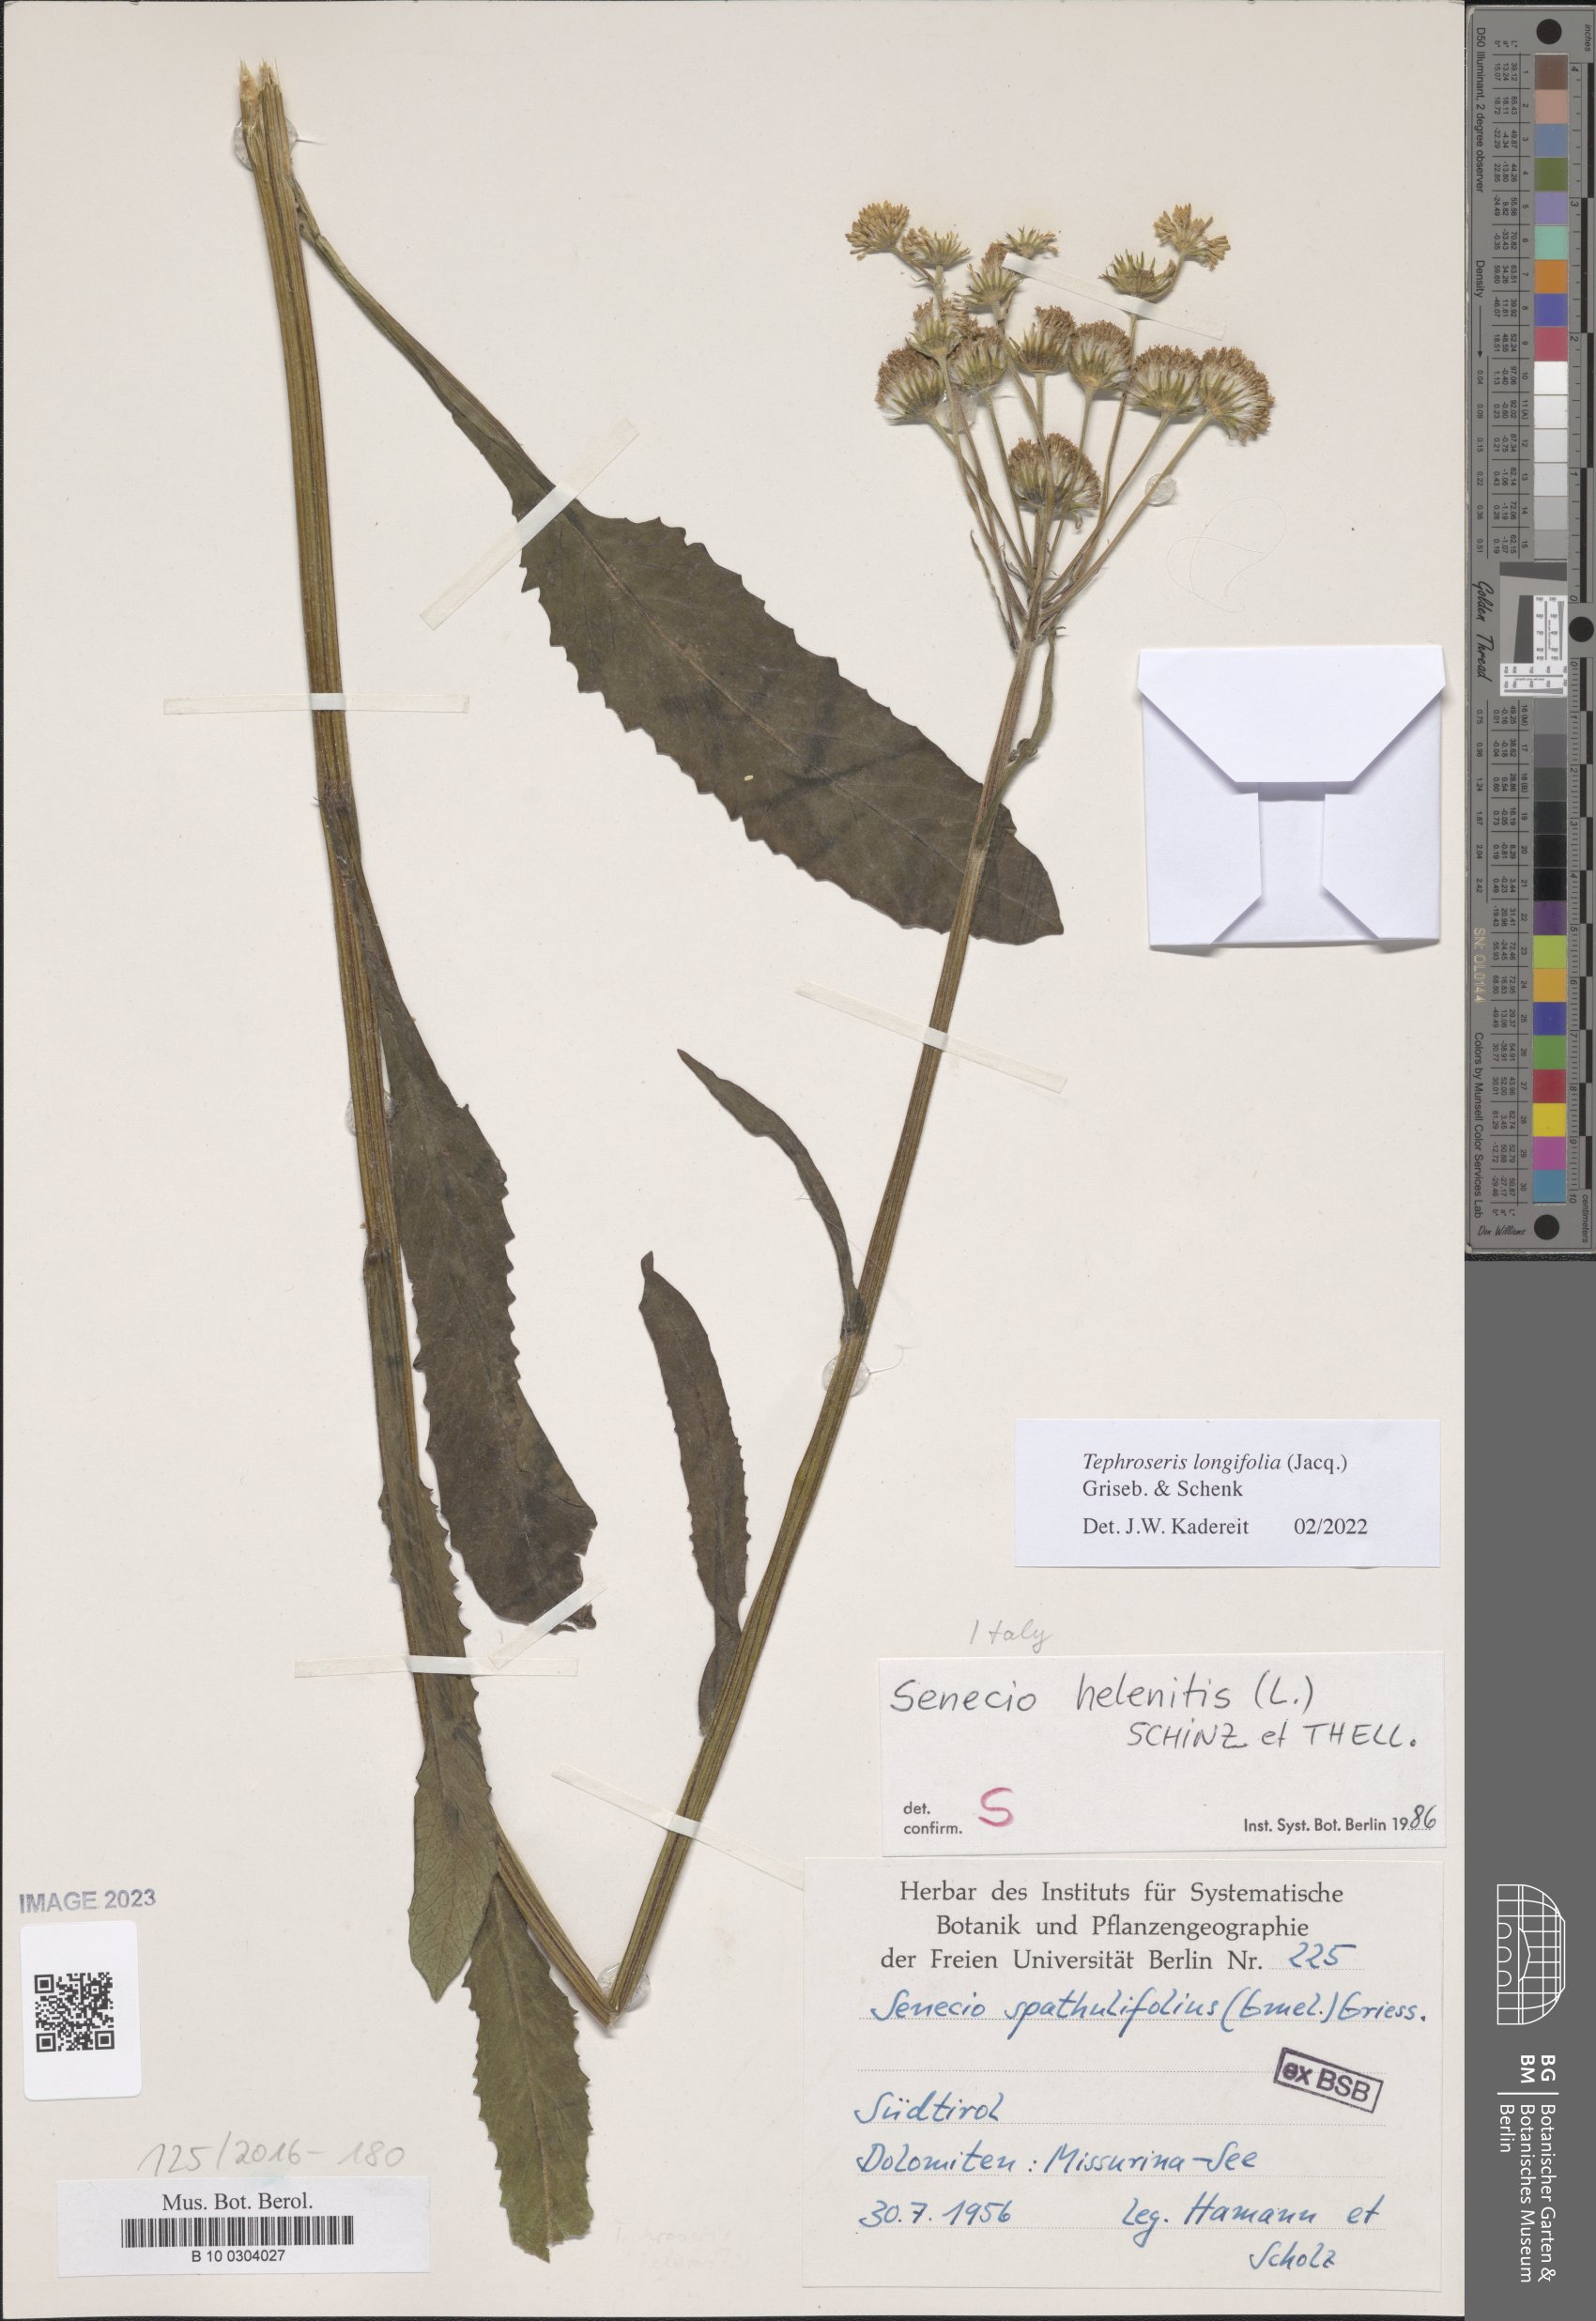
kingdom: Plantae
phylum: Tracheophyta
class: Magnoliopsida
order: Asterales
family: Asteraceae
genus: Tephroseris
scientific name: Tephroseris longifolia
